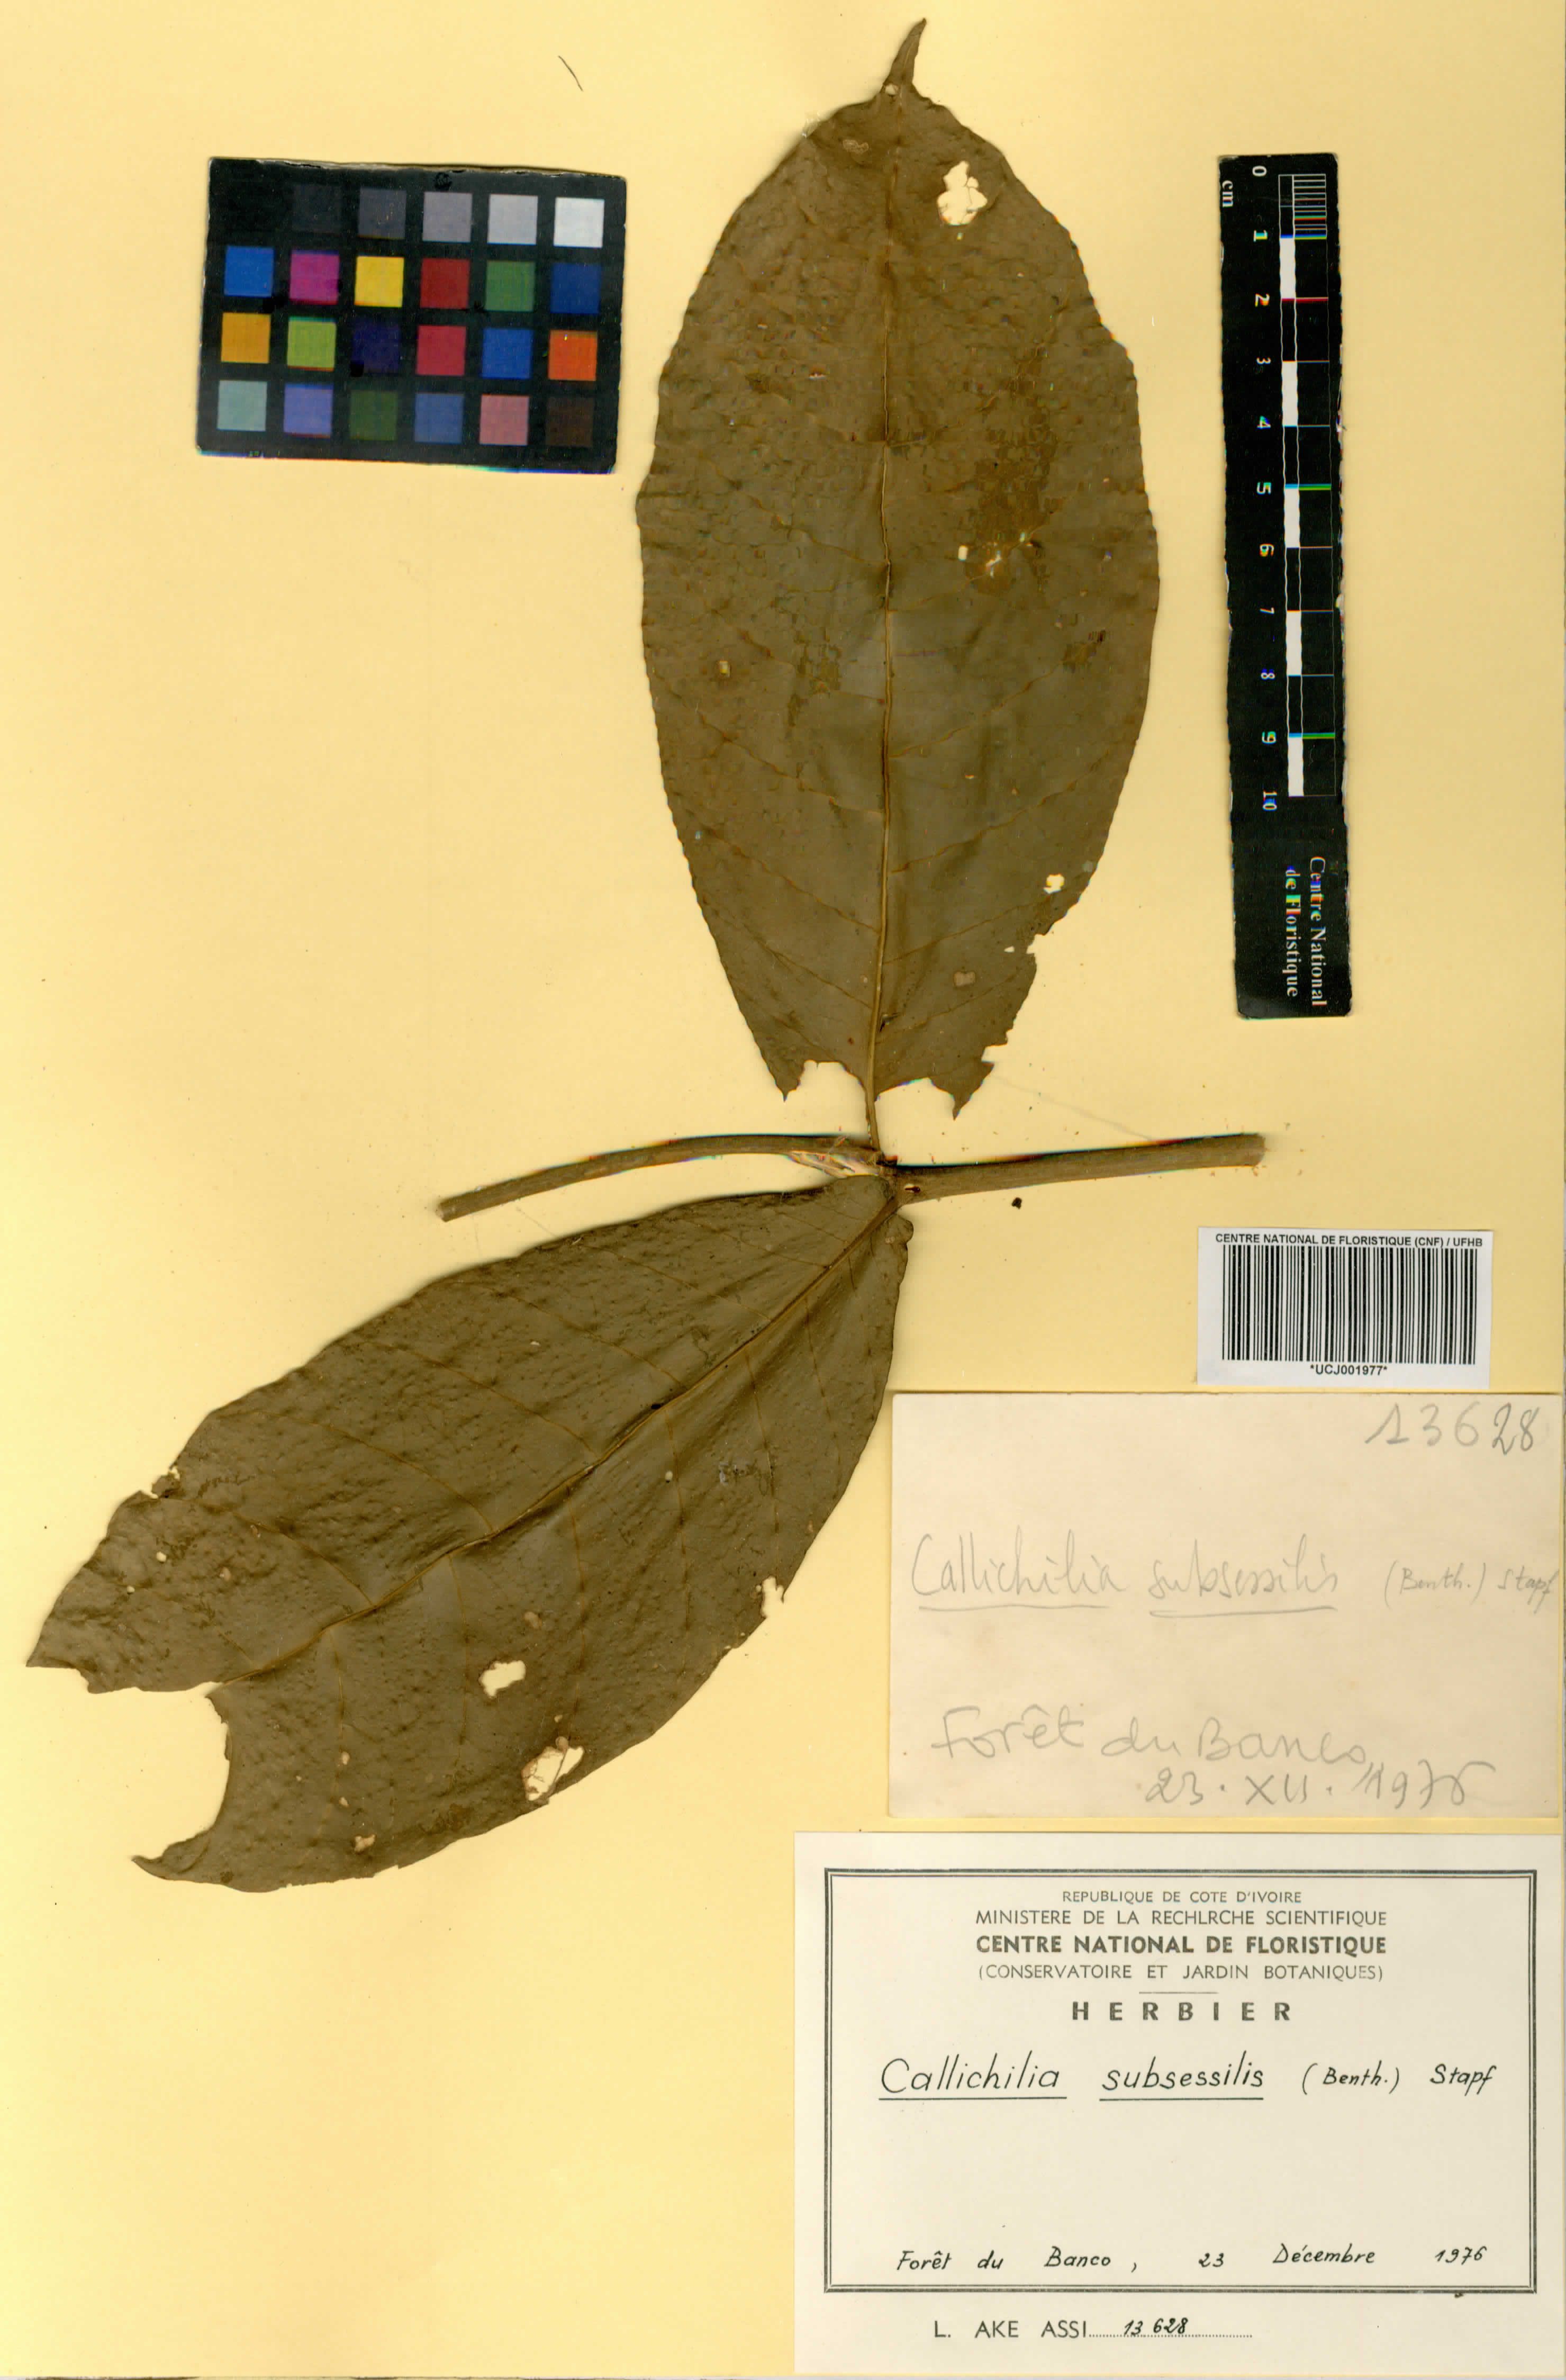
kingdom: Plantae
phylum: Tracheophyta
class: Magnoliopsida
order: Gentianales
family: Apocynaceae
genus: Callichilia
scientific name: Callichilia subsessilis
